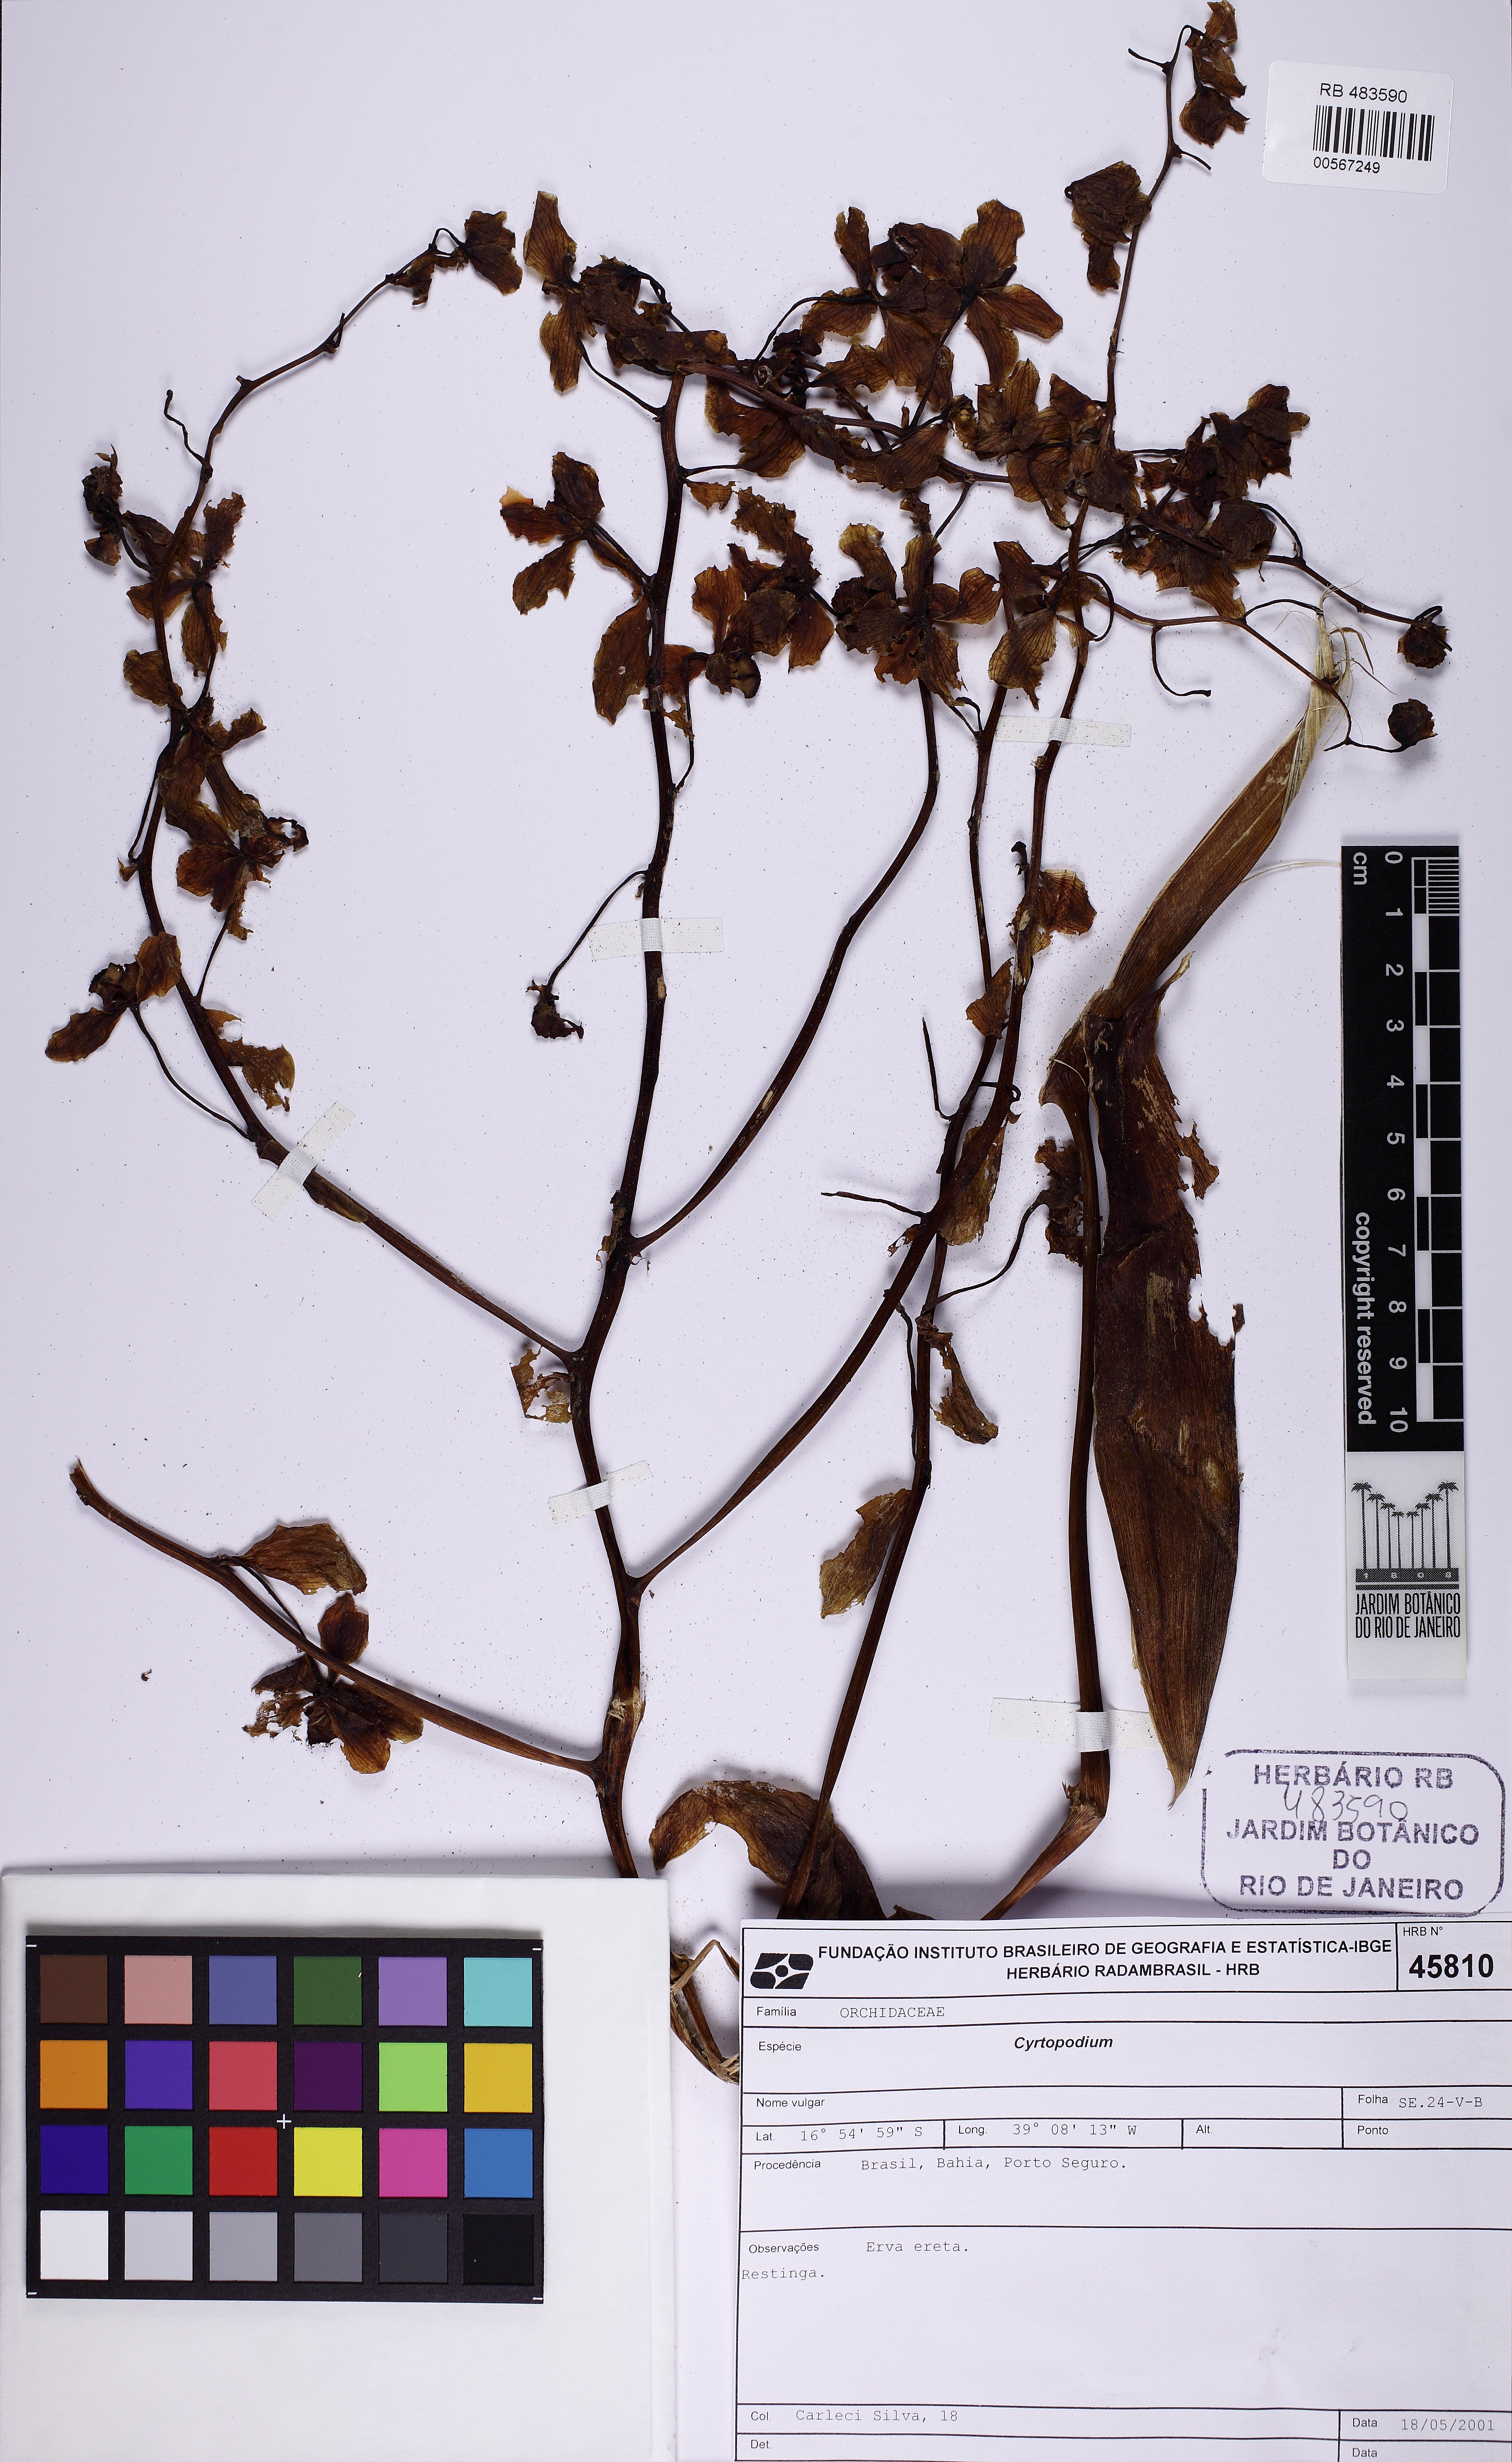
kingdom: Plantae
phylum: Tracheophyta
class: Liliopsida
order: Asparagales
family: Orchidaceae
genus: Cyrtopodium
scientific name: Cyrtopodium holstii
